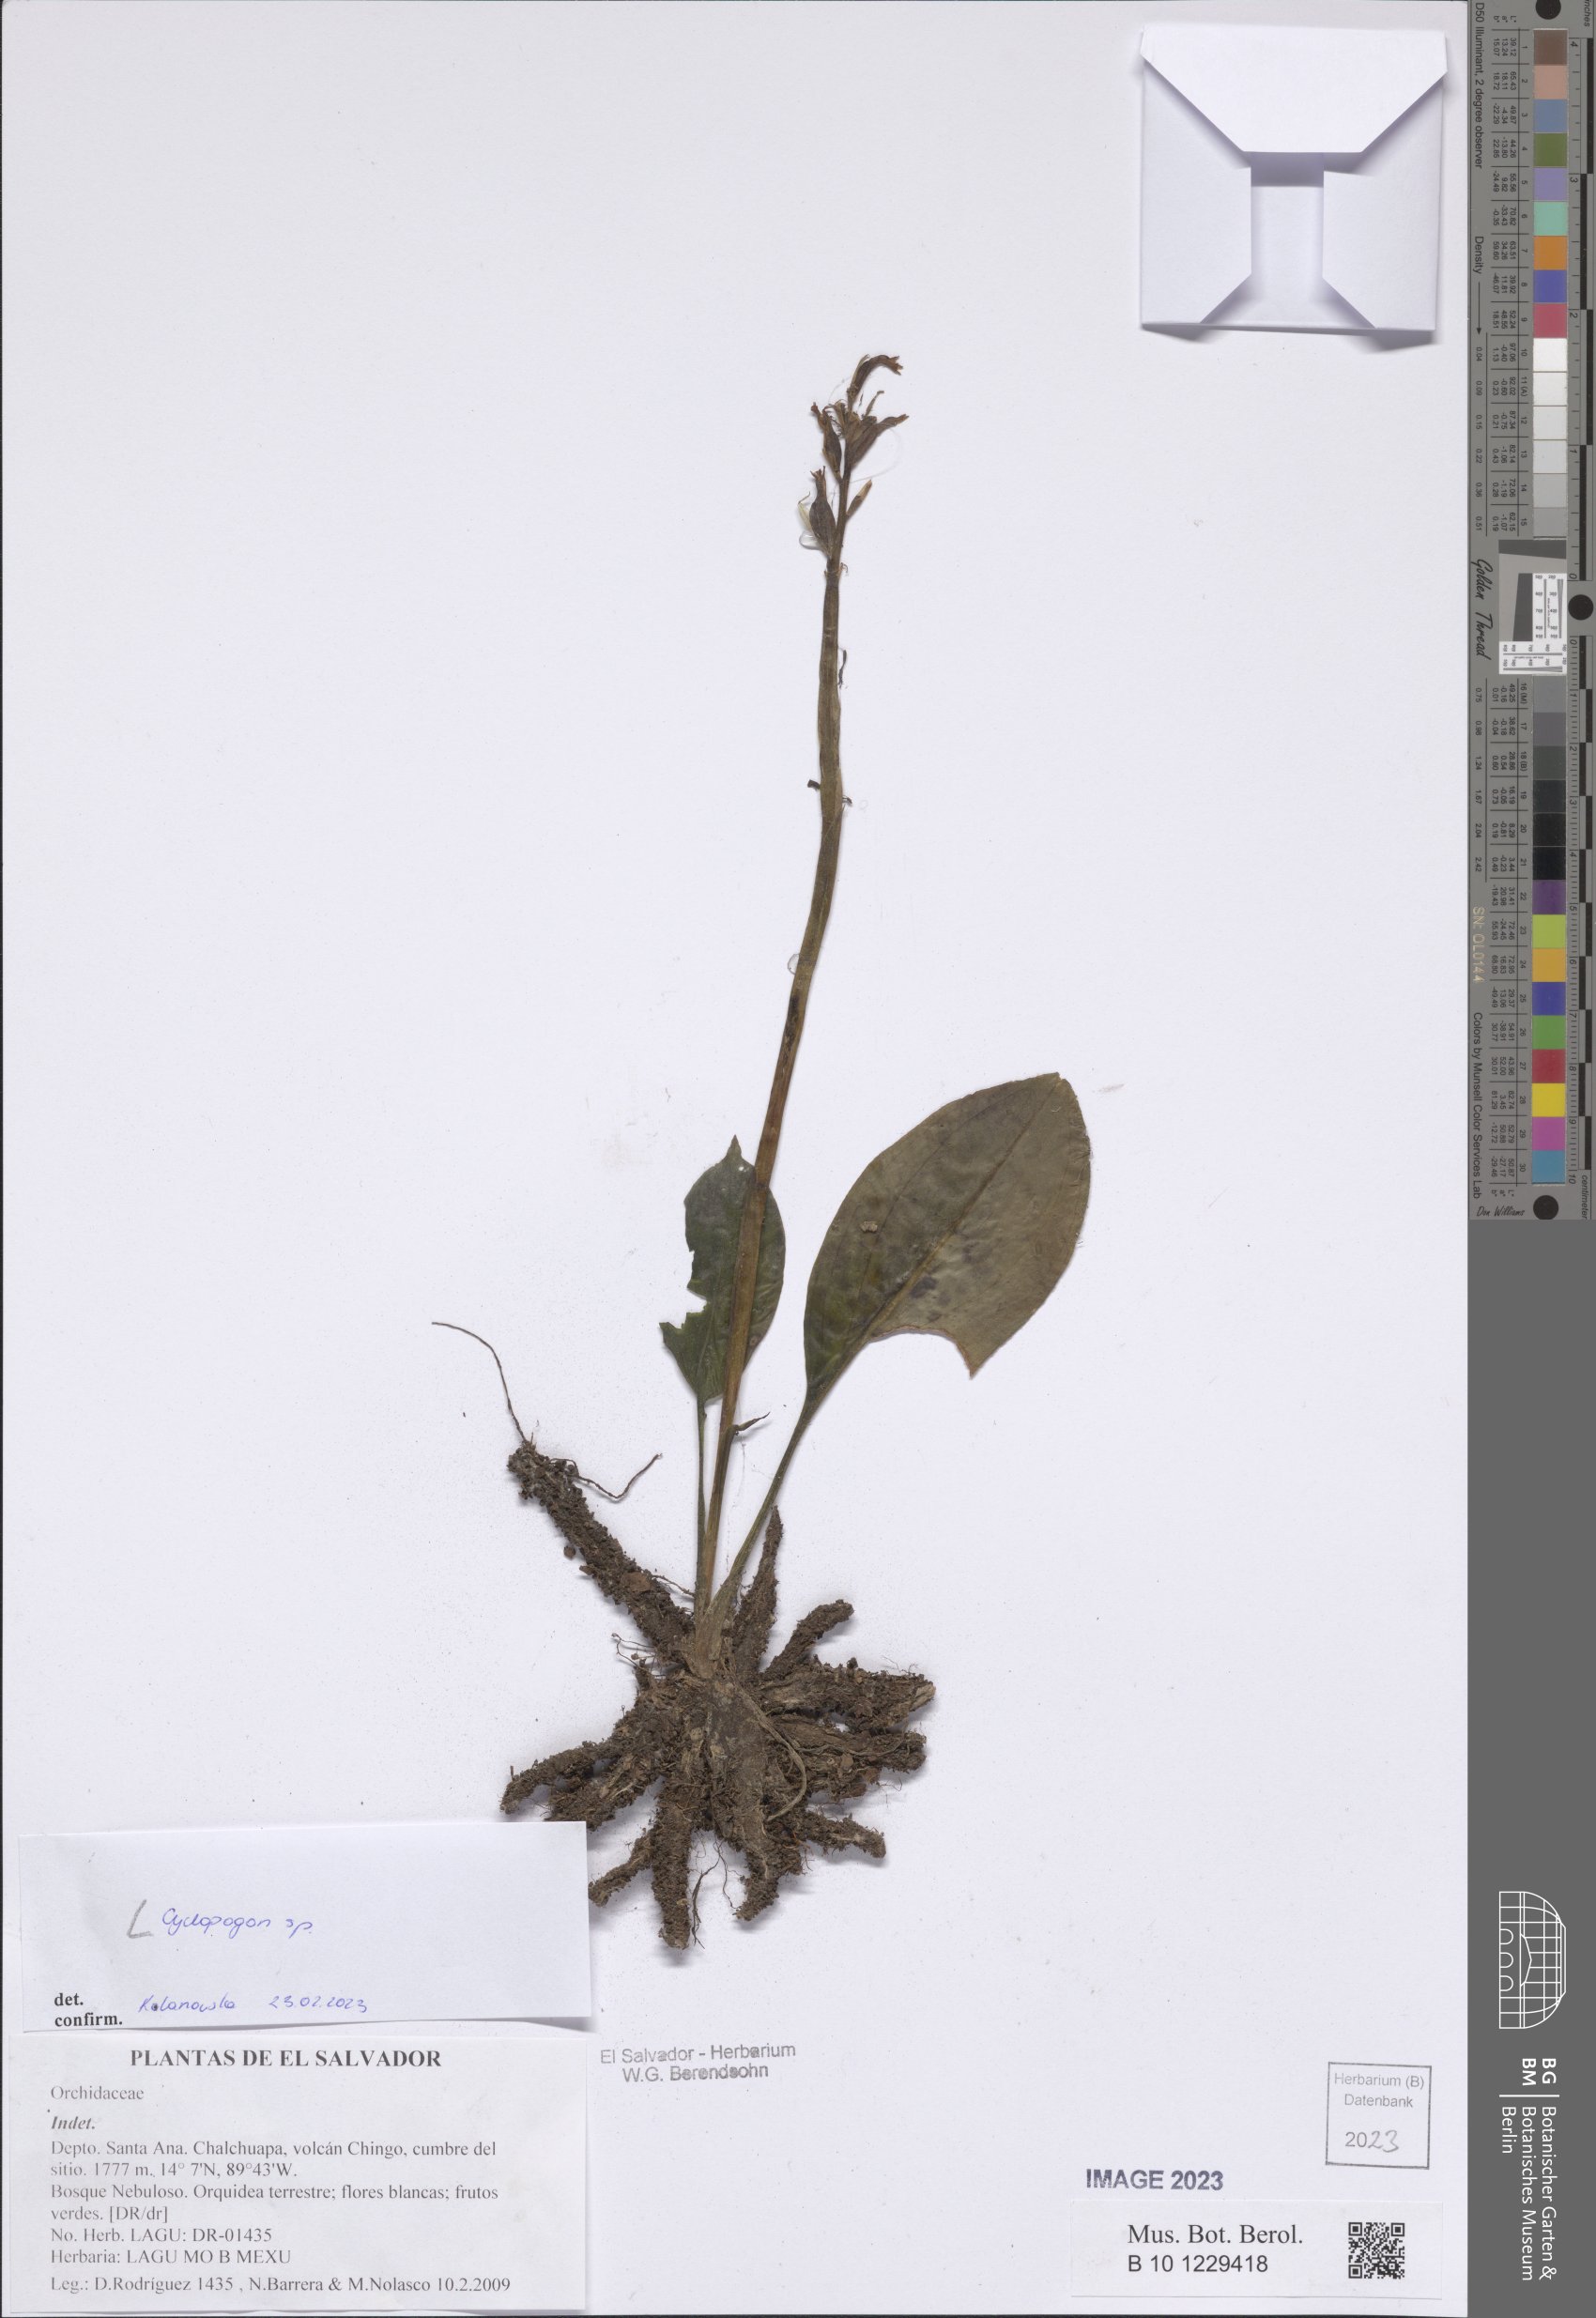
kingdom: Plantae
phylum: Tracheophyta
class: Liliopsida
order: Asparagales
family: Orchidaceae
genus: Cyclopogon
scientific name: Cyclopogon
